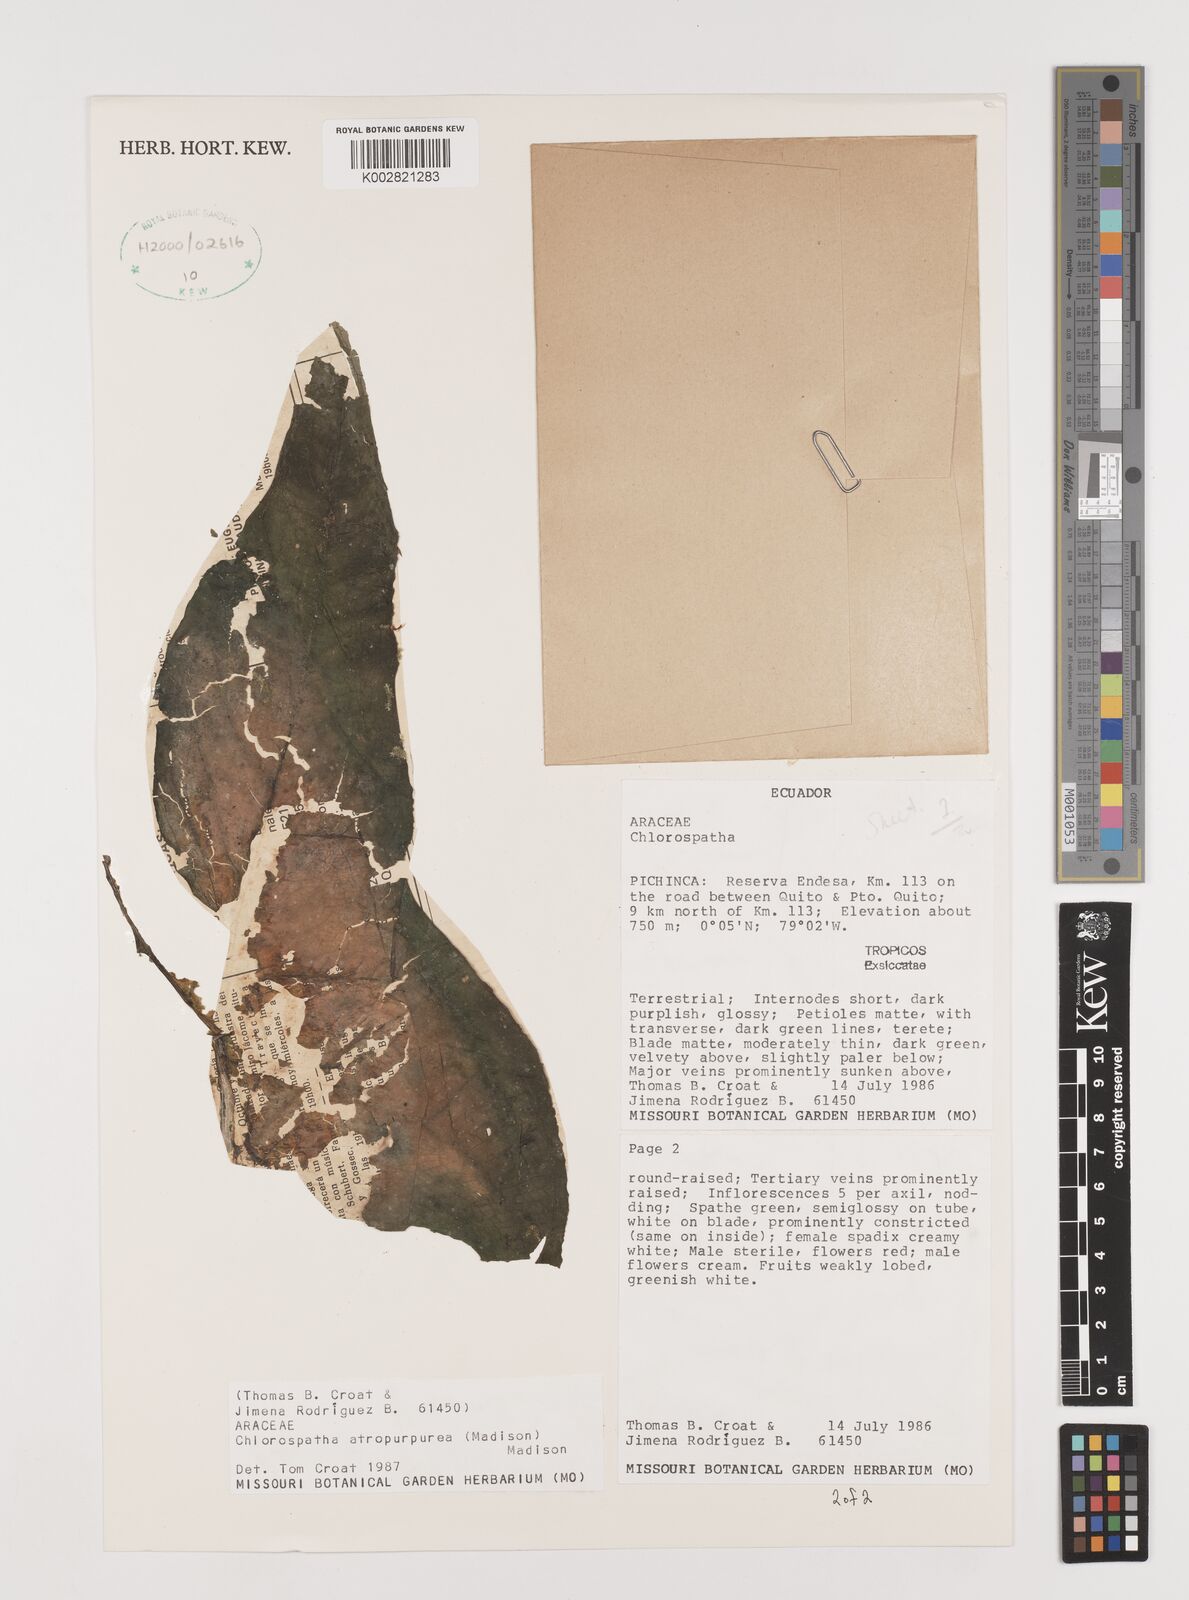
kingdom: Plantae
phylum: Tracheophyta
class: Liliopsida
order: Alismatales
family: Araceae
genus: Chlorospatha
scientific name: Chlorospatha atropurpurea
